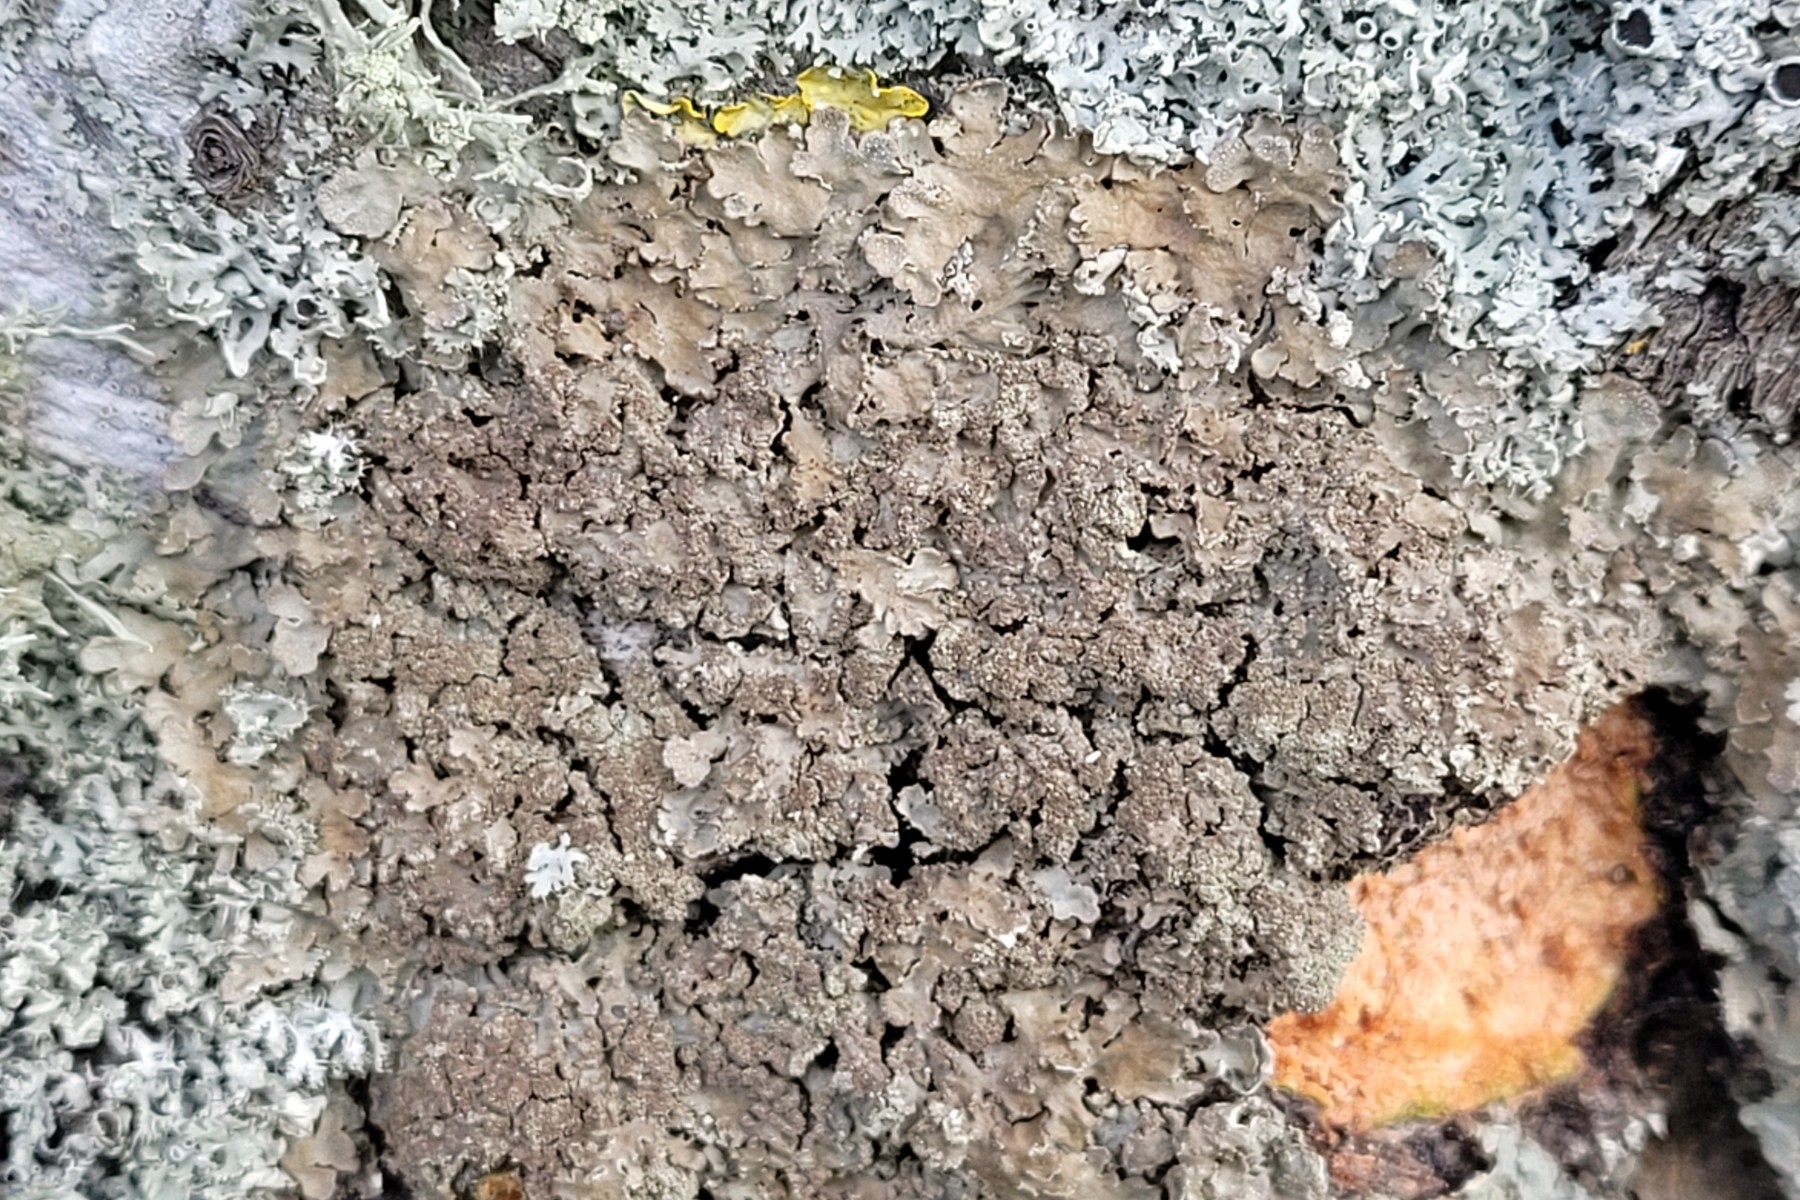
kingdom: Fungi
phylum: Ascomycota
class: Lecanoromycetes
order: Caliciales
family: Physciaceae
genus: Poeltonia
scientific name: Poeltonia grisea
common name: hvidgrå dugrosetlav
